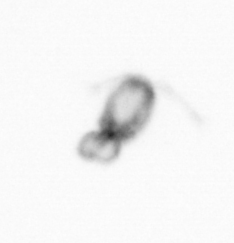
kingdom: Animalia
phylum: Arthropoda
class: Copepoda
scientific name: Copepoda
